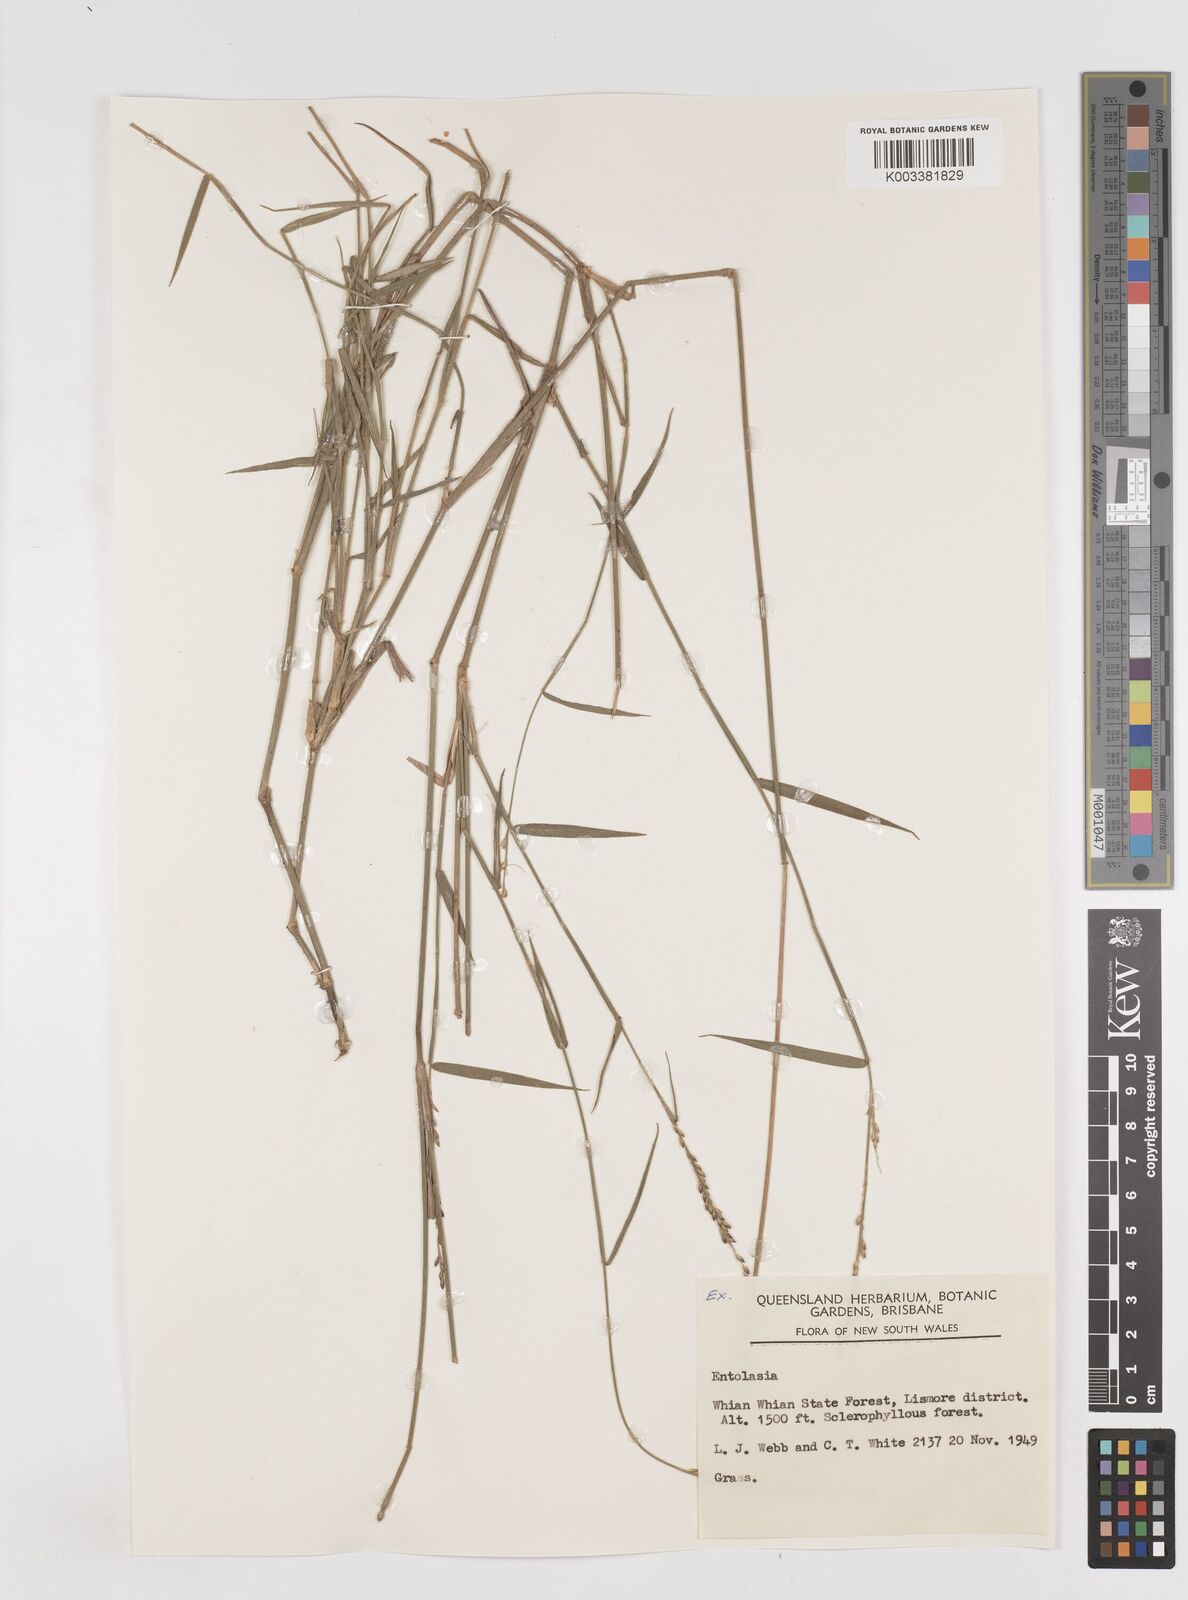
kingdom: Plantae
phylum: Tracheophyta
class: Liliopsida
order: Poales
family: Poaceae
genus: Entolasia
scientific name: Entolasia
